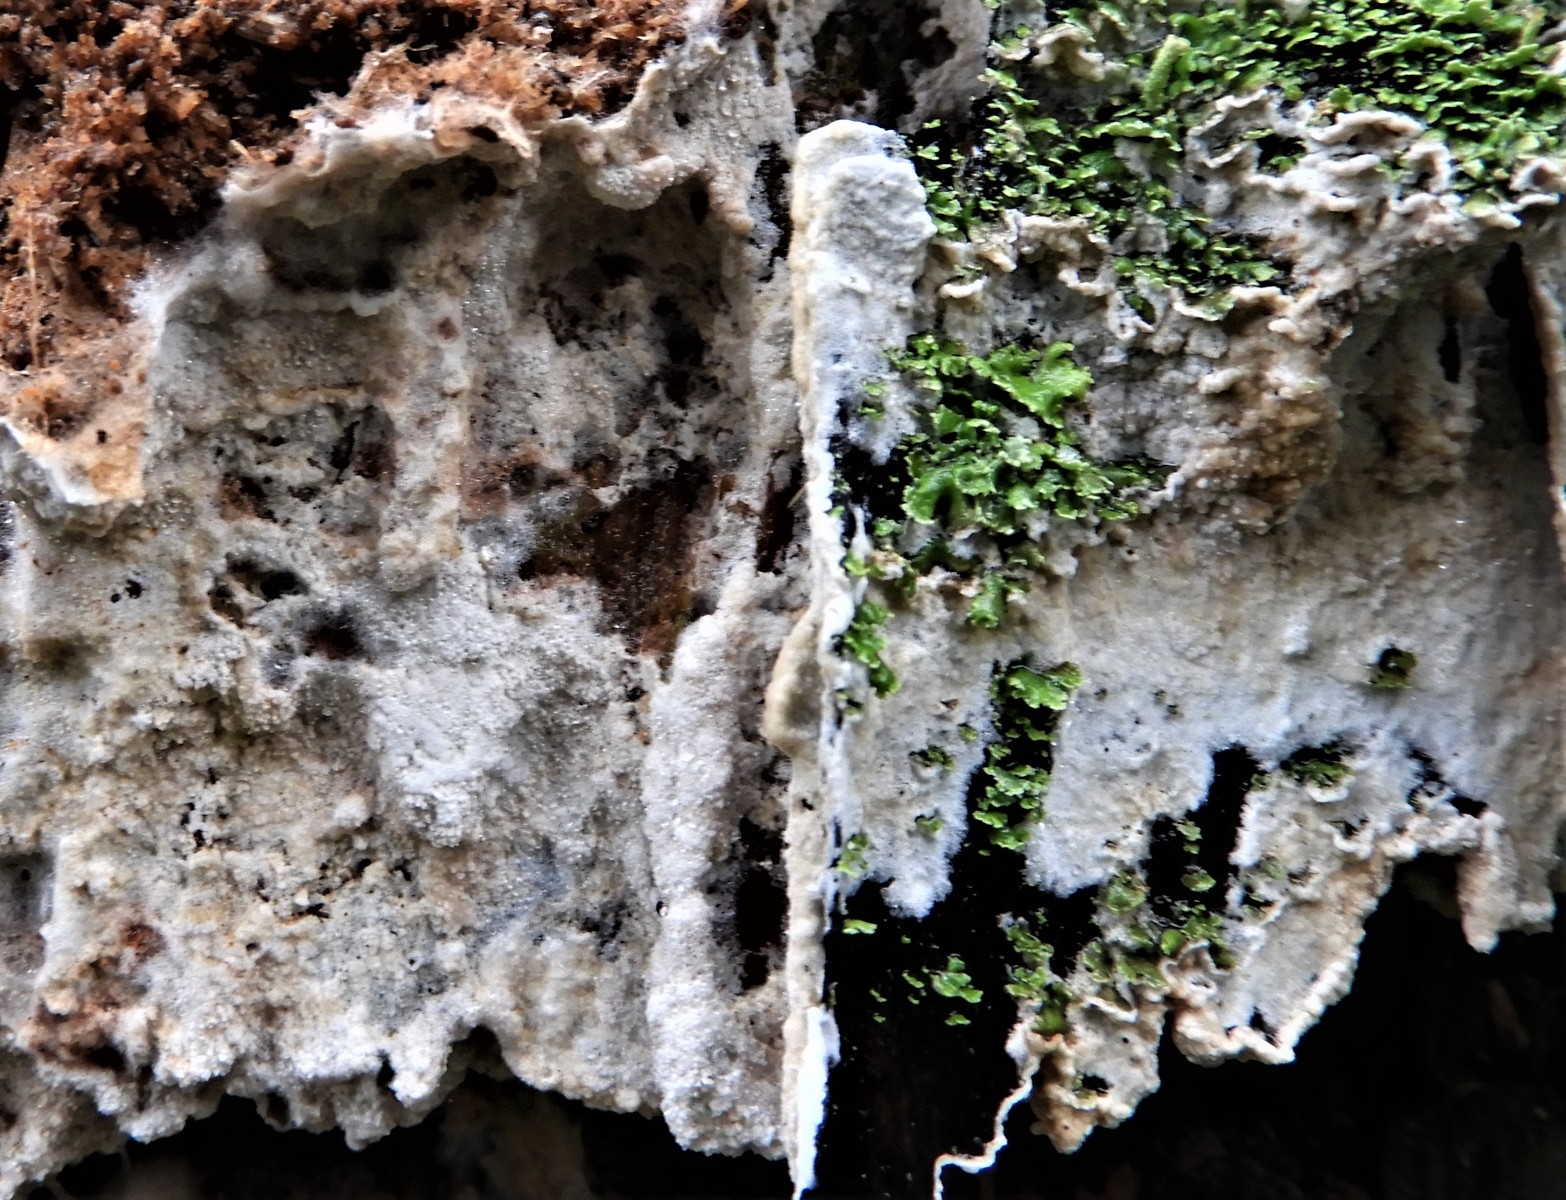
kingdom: Fungi
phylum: Basidiomycota
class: Agaricomycetes
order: Corticiales
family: Corticiaceae
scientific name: Corticiaceae
